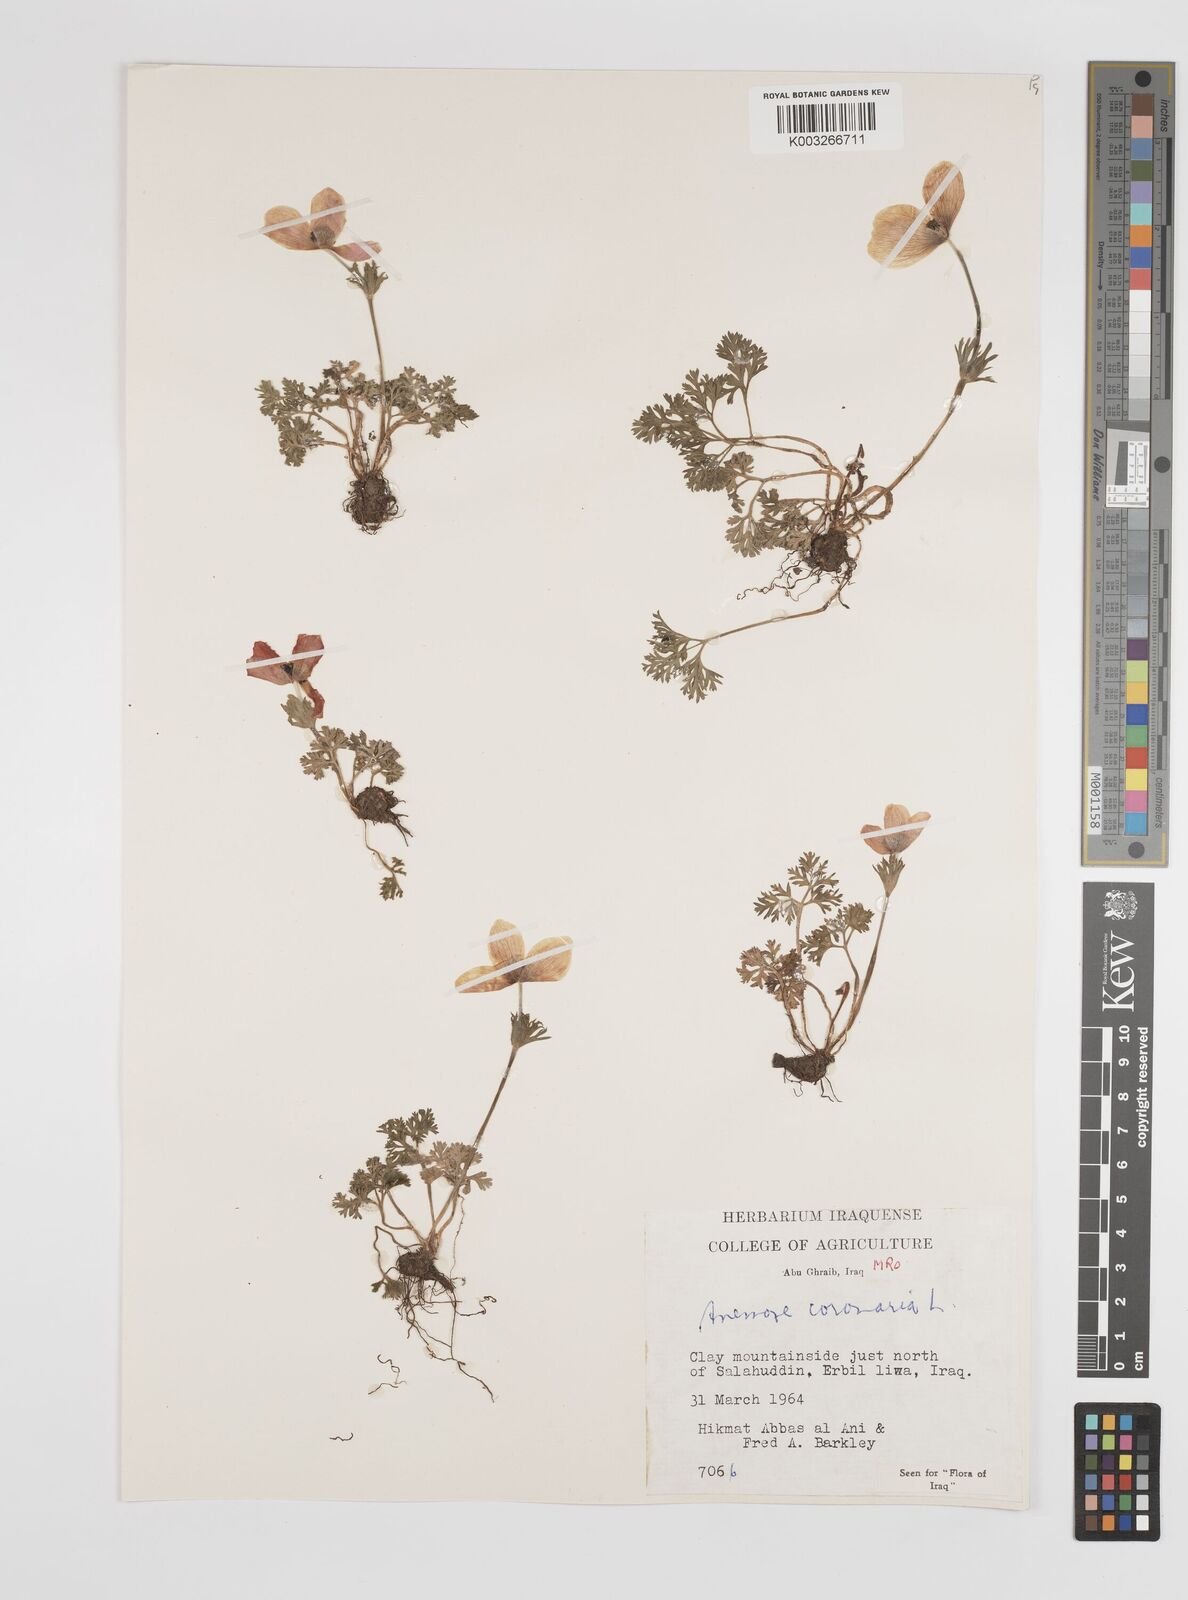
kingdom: Plantae
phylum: Tracheophyta
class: Magnoliopsida
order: Ranunculales
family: Ranunculaceae
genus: Anemone
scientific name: Anemone coronaria
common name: Poppy anemone
